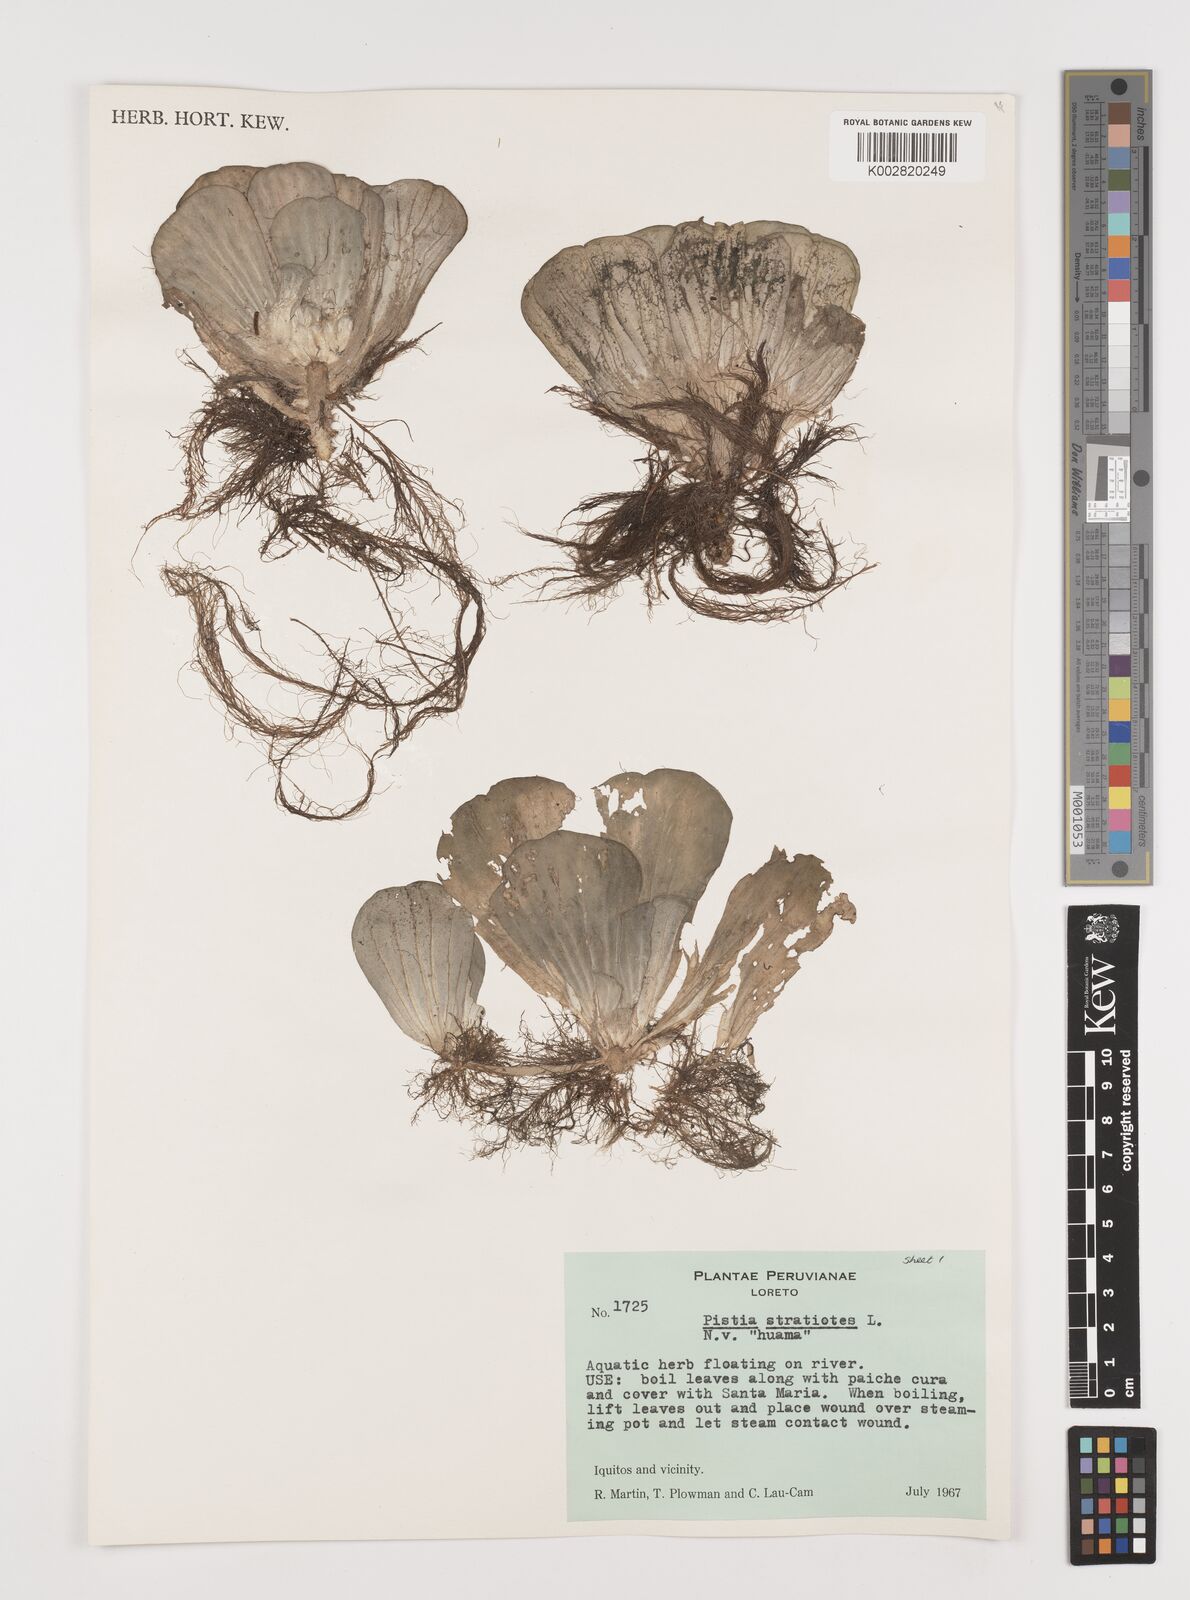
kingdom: Plantae
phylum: Tracheophyta
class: Liliopsida
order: Alismatales
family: Araceae
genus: Pistia
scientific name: Pistia stratiotes
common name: Water lettuce
